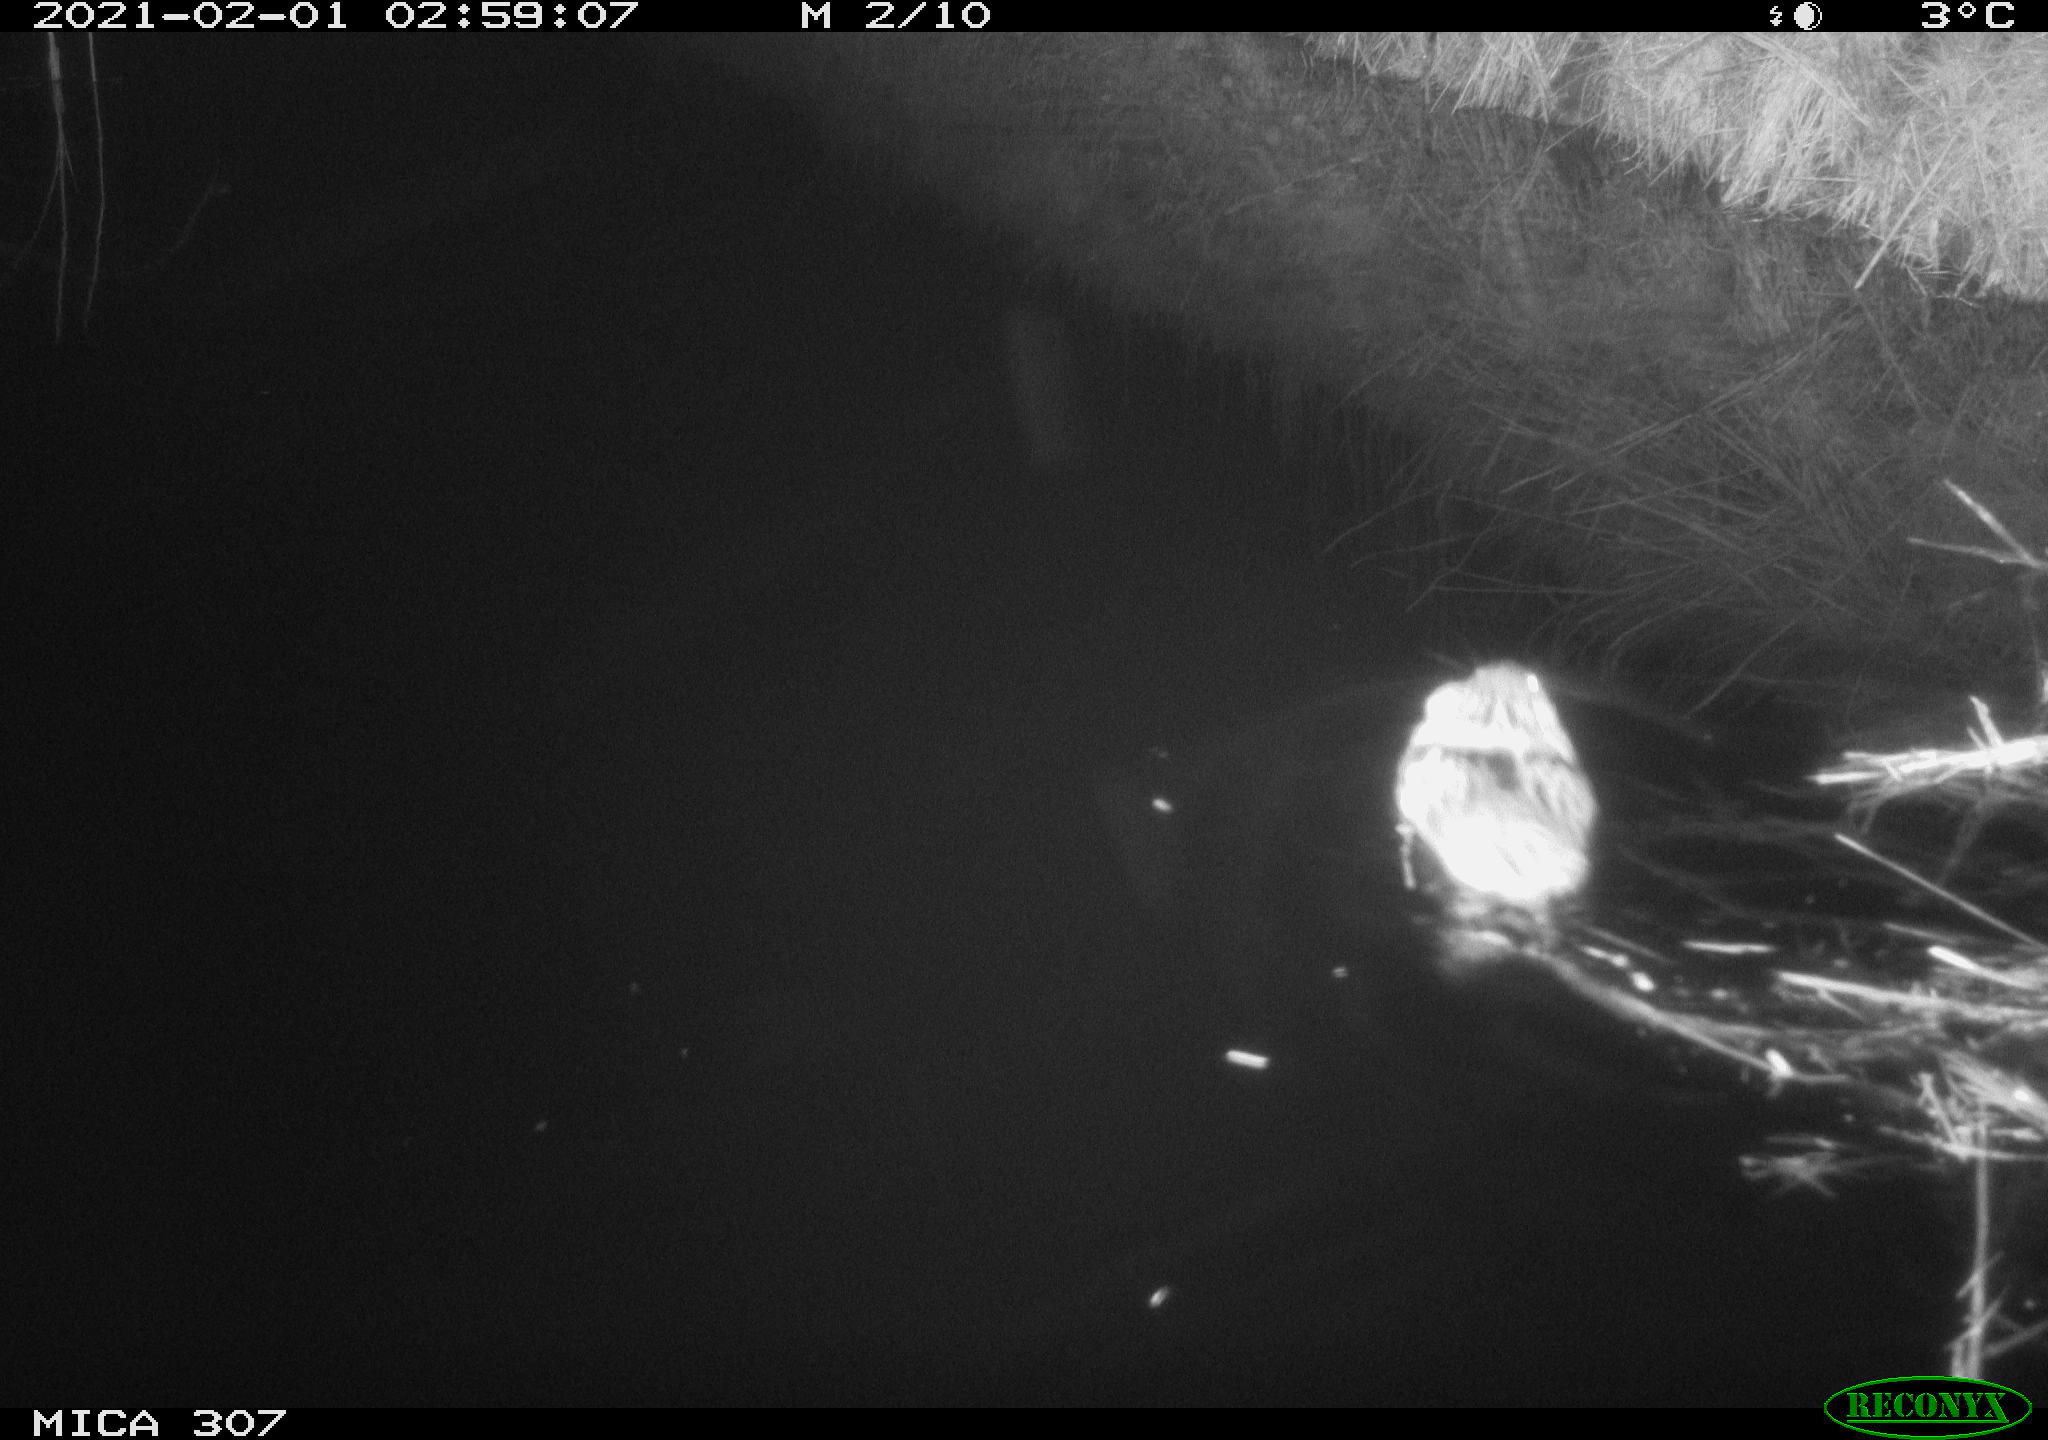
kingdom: Animalia
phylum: Chordata
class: Mammalia
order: Rodentia
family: Cricetidae
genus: Ondatra
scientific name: Ondatra zibethicus
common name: Muskrat
